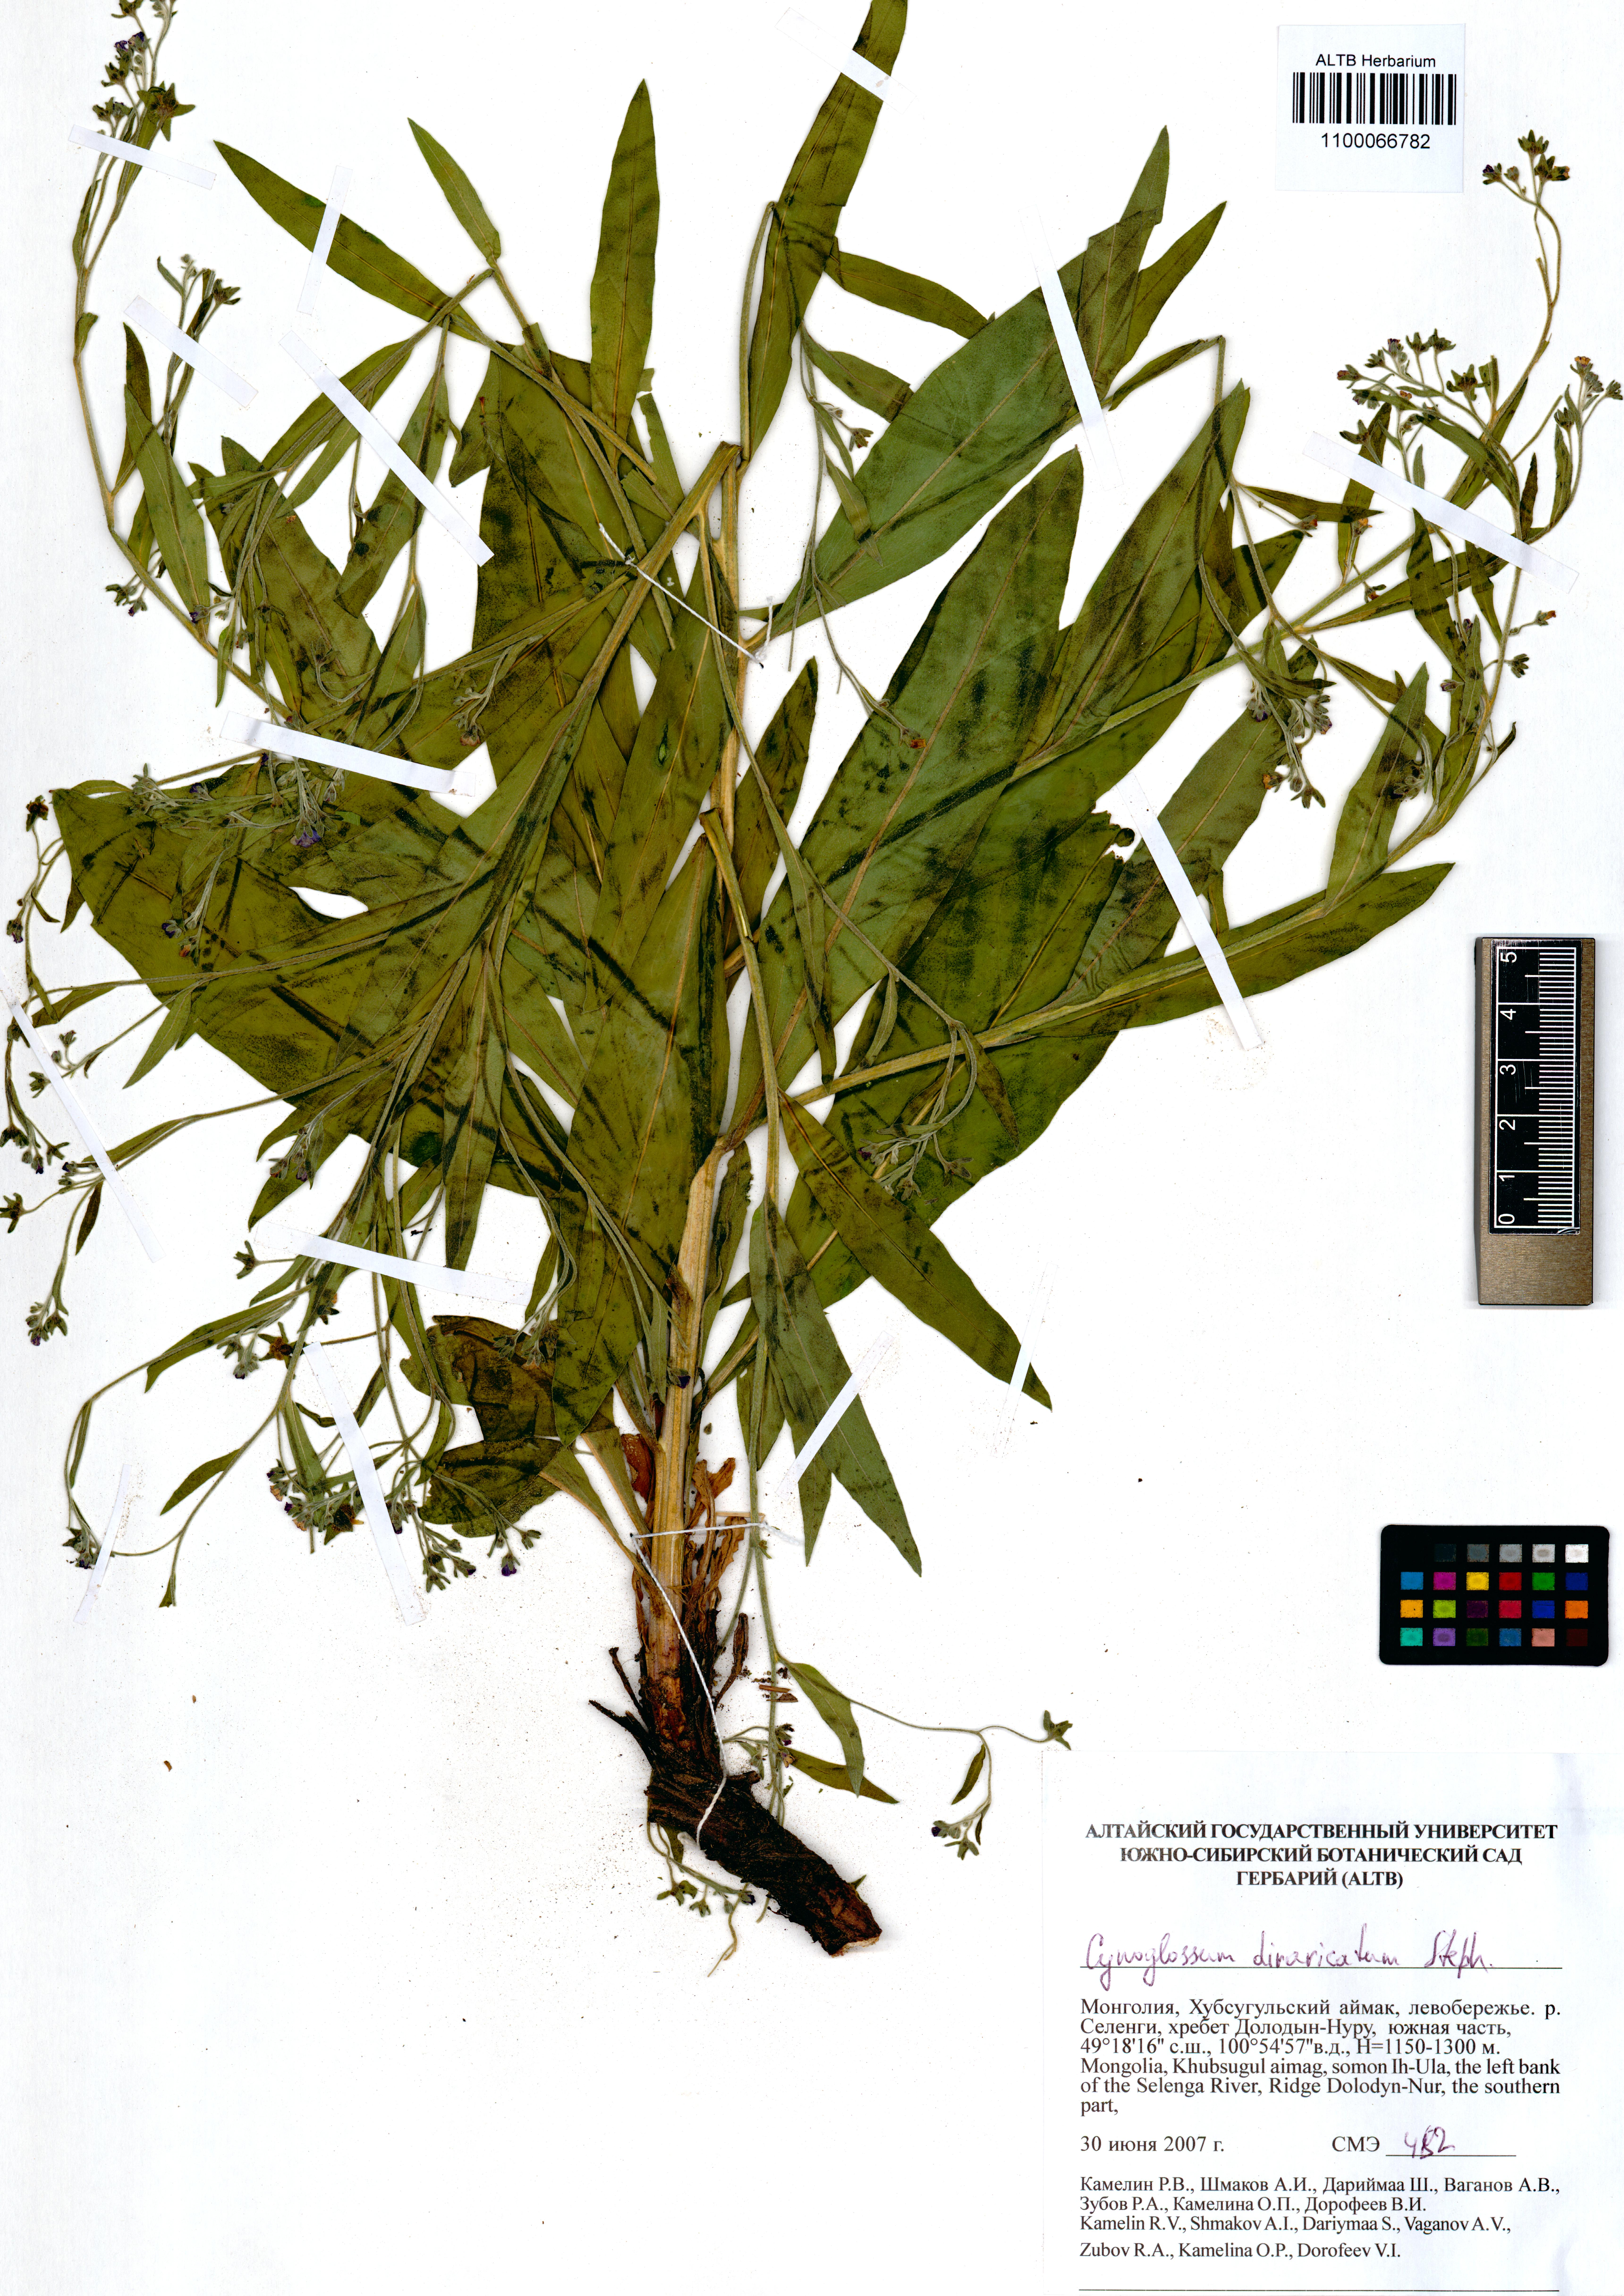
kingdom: Plantae
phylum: Tracheophyta
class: Magnoliopsida
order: Boraginales
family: Boraginaceae
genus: Cynoglossum
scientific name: Cynoglossum divaricatum
